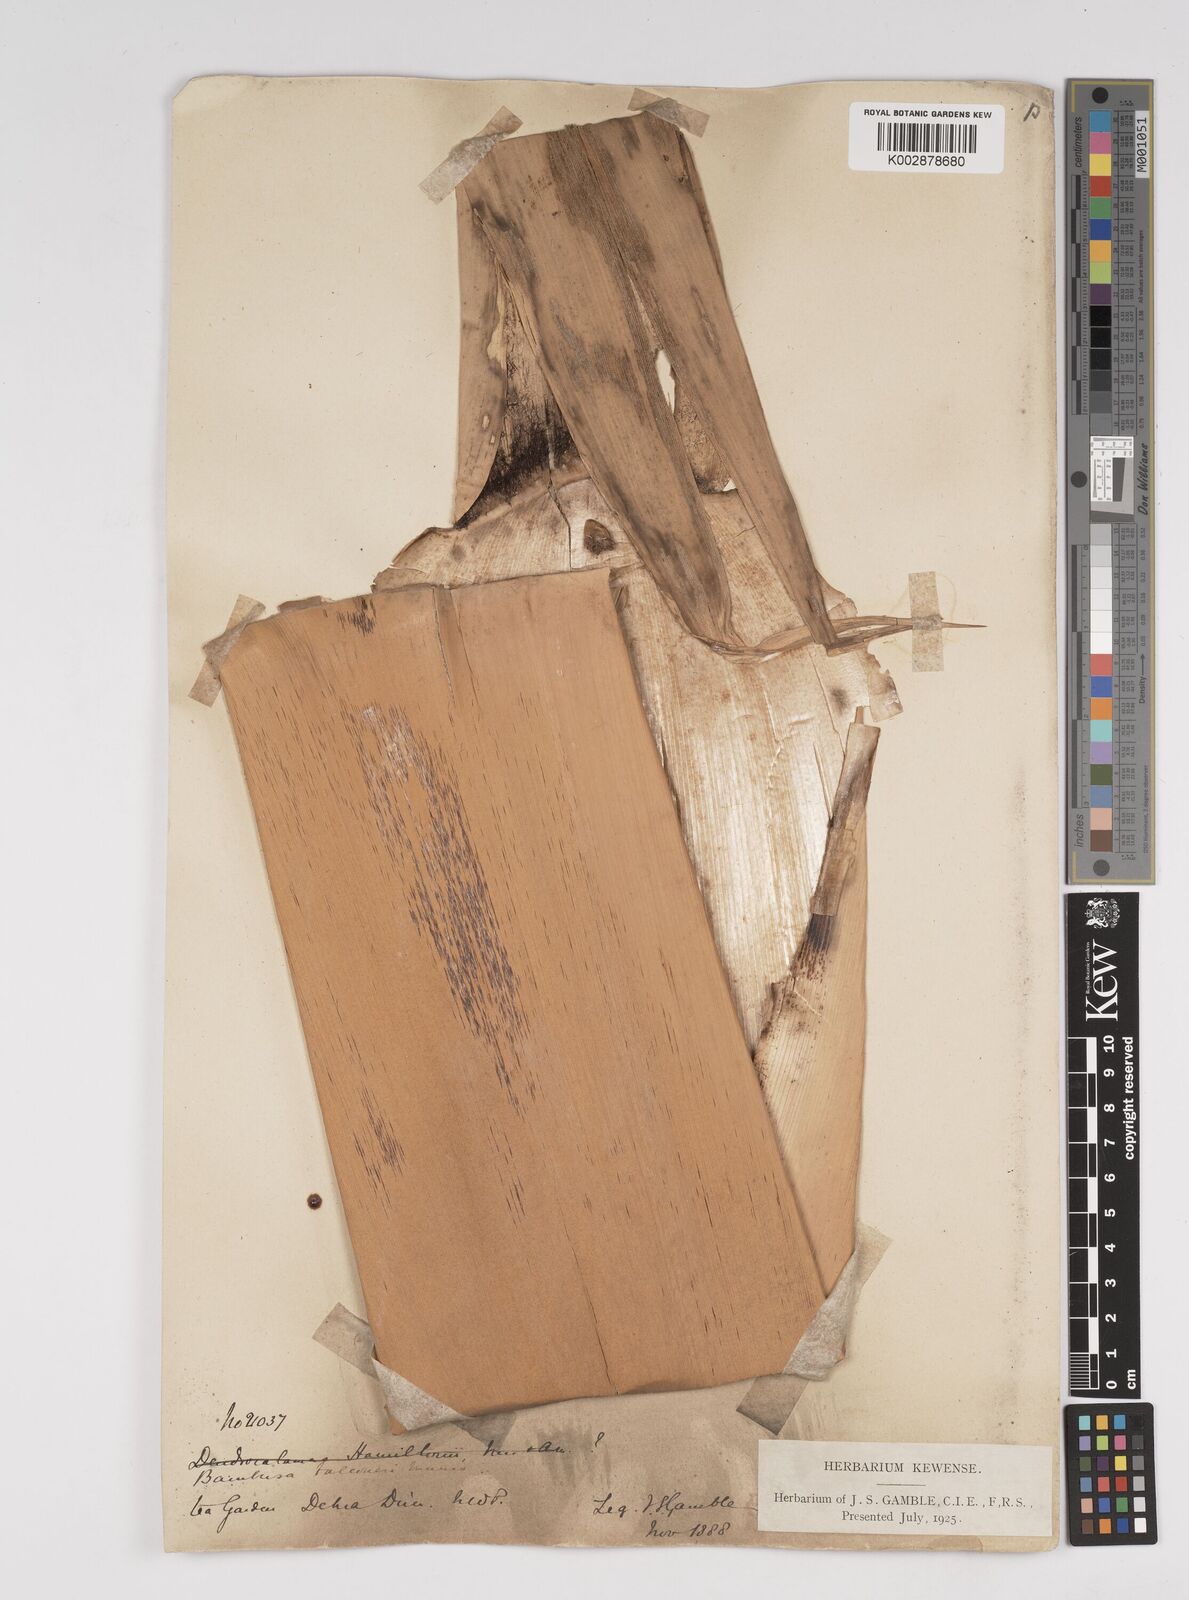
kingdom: Plantae
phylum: Tracheophyta
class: Liliopsida
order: Poales
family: Poaceae
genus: Dendrocalamus
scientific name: Dendrocalamus hamiltonii
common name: Tama bamboo
